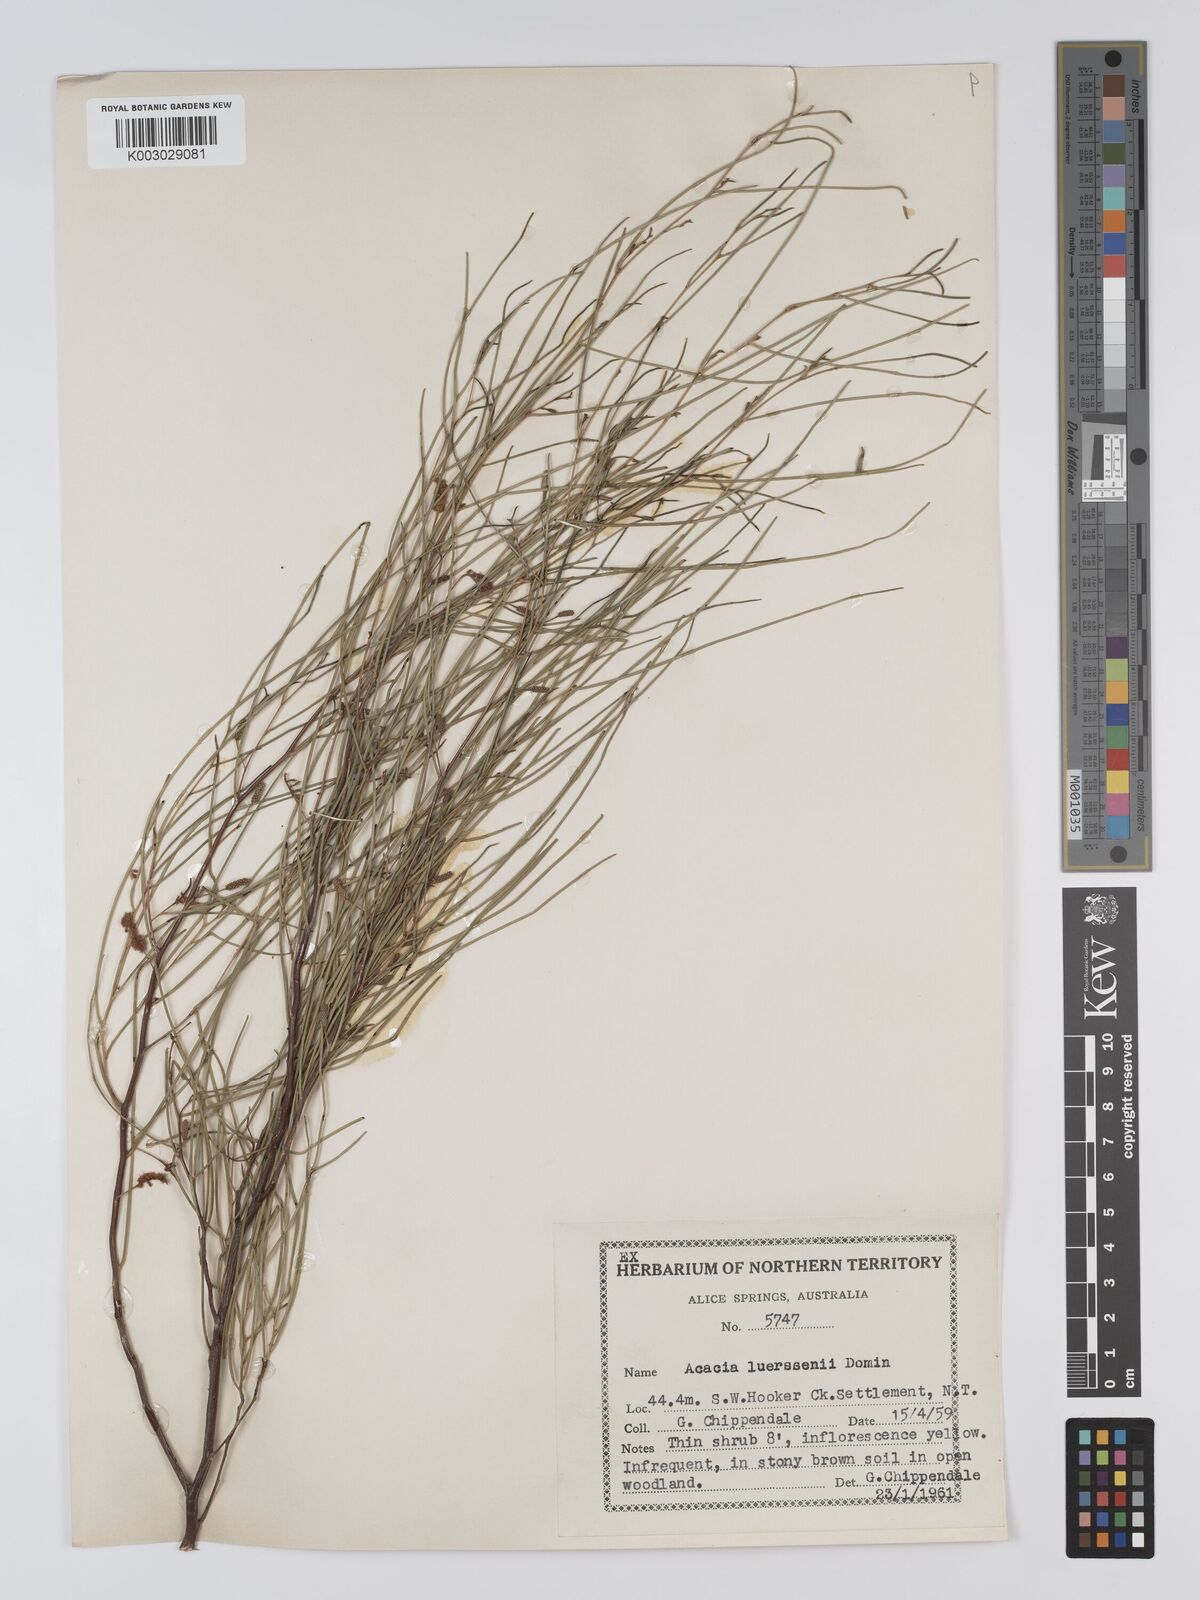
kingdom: Plantae
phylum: Tracheophyta
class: Magnoliopsida
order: Fabales
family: Fabaceae
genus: Acacia
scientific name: Acacia tenuissima
